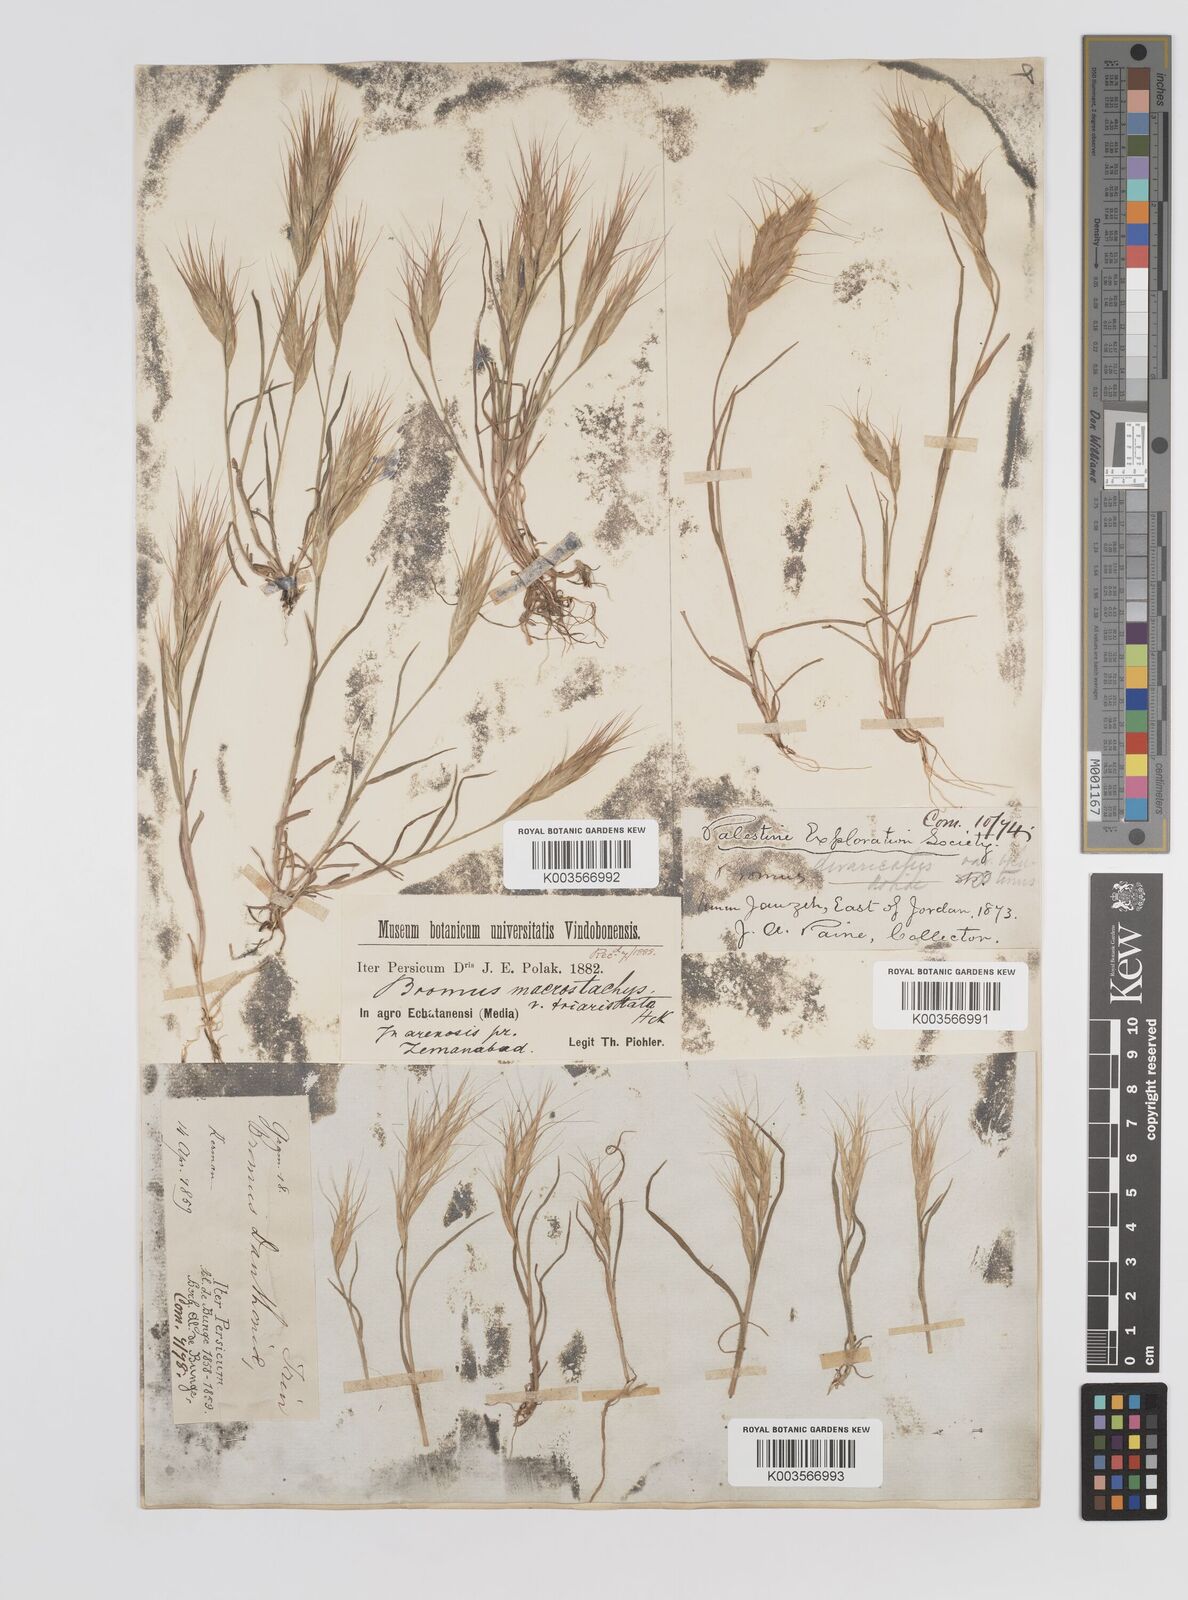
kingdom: Plantae
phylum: Tracheophyta
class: Liliopsida
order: Poales
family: Poaceae
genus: Bromus
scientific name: Bromus danthoniae
